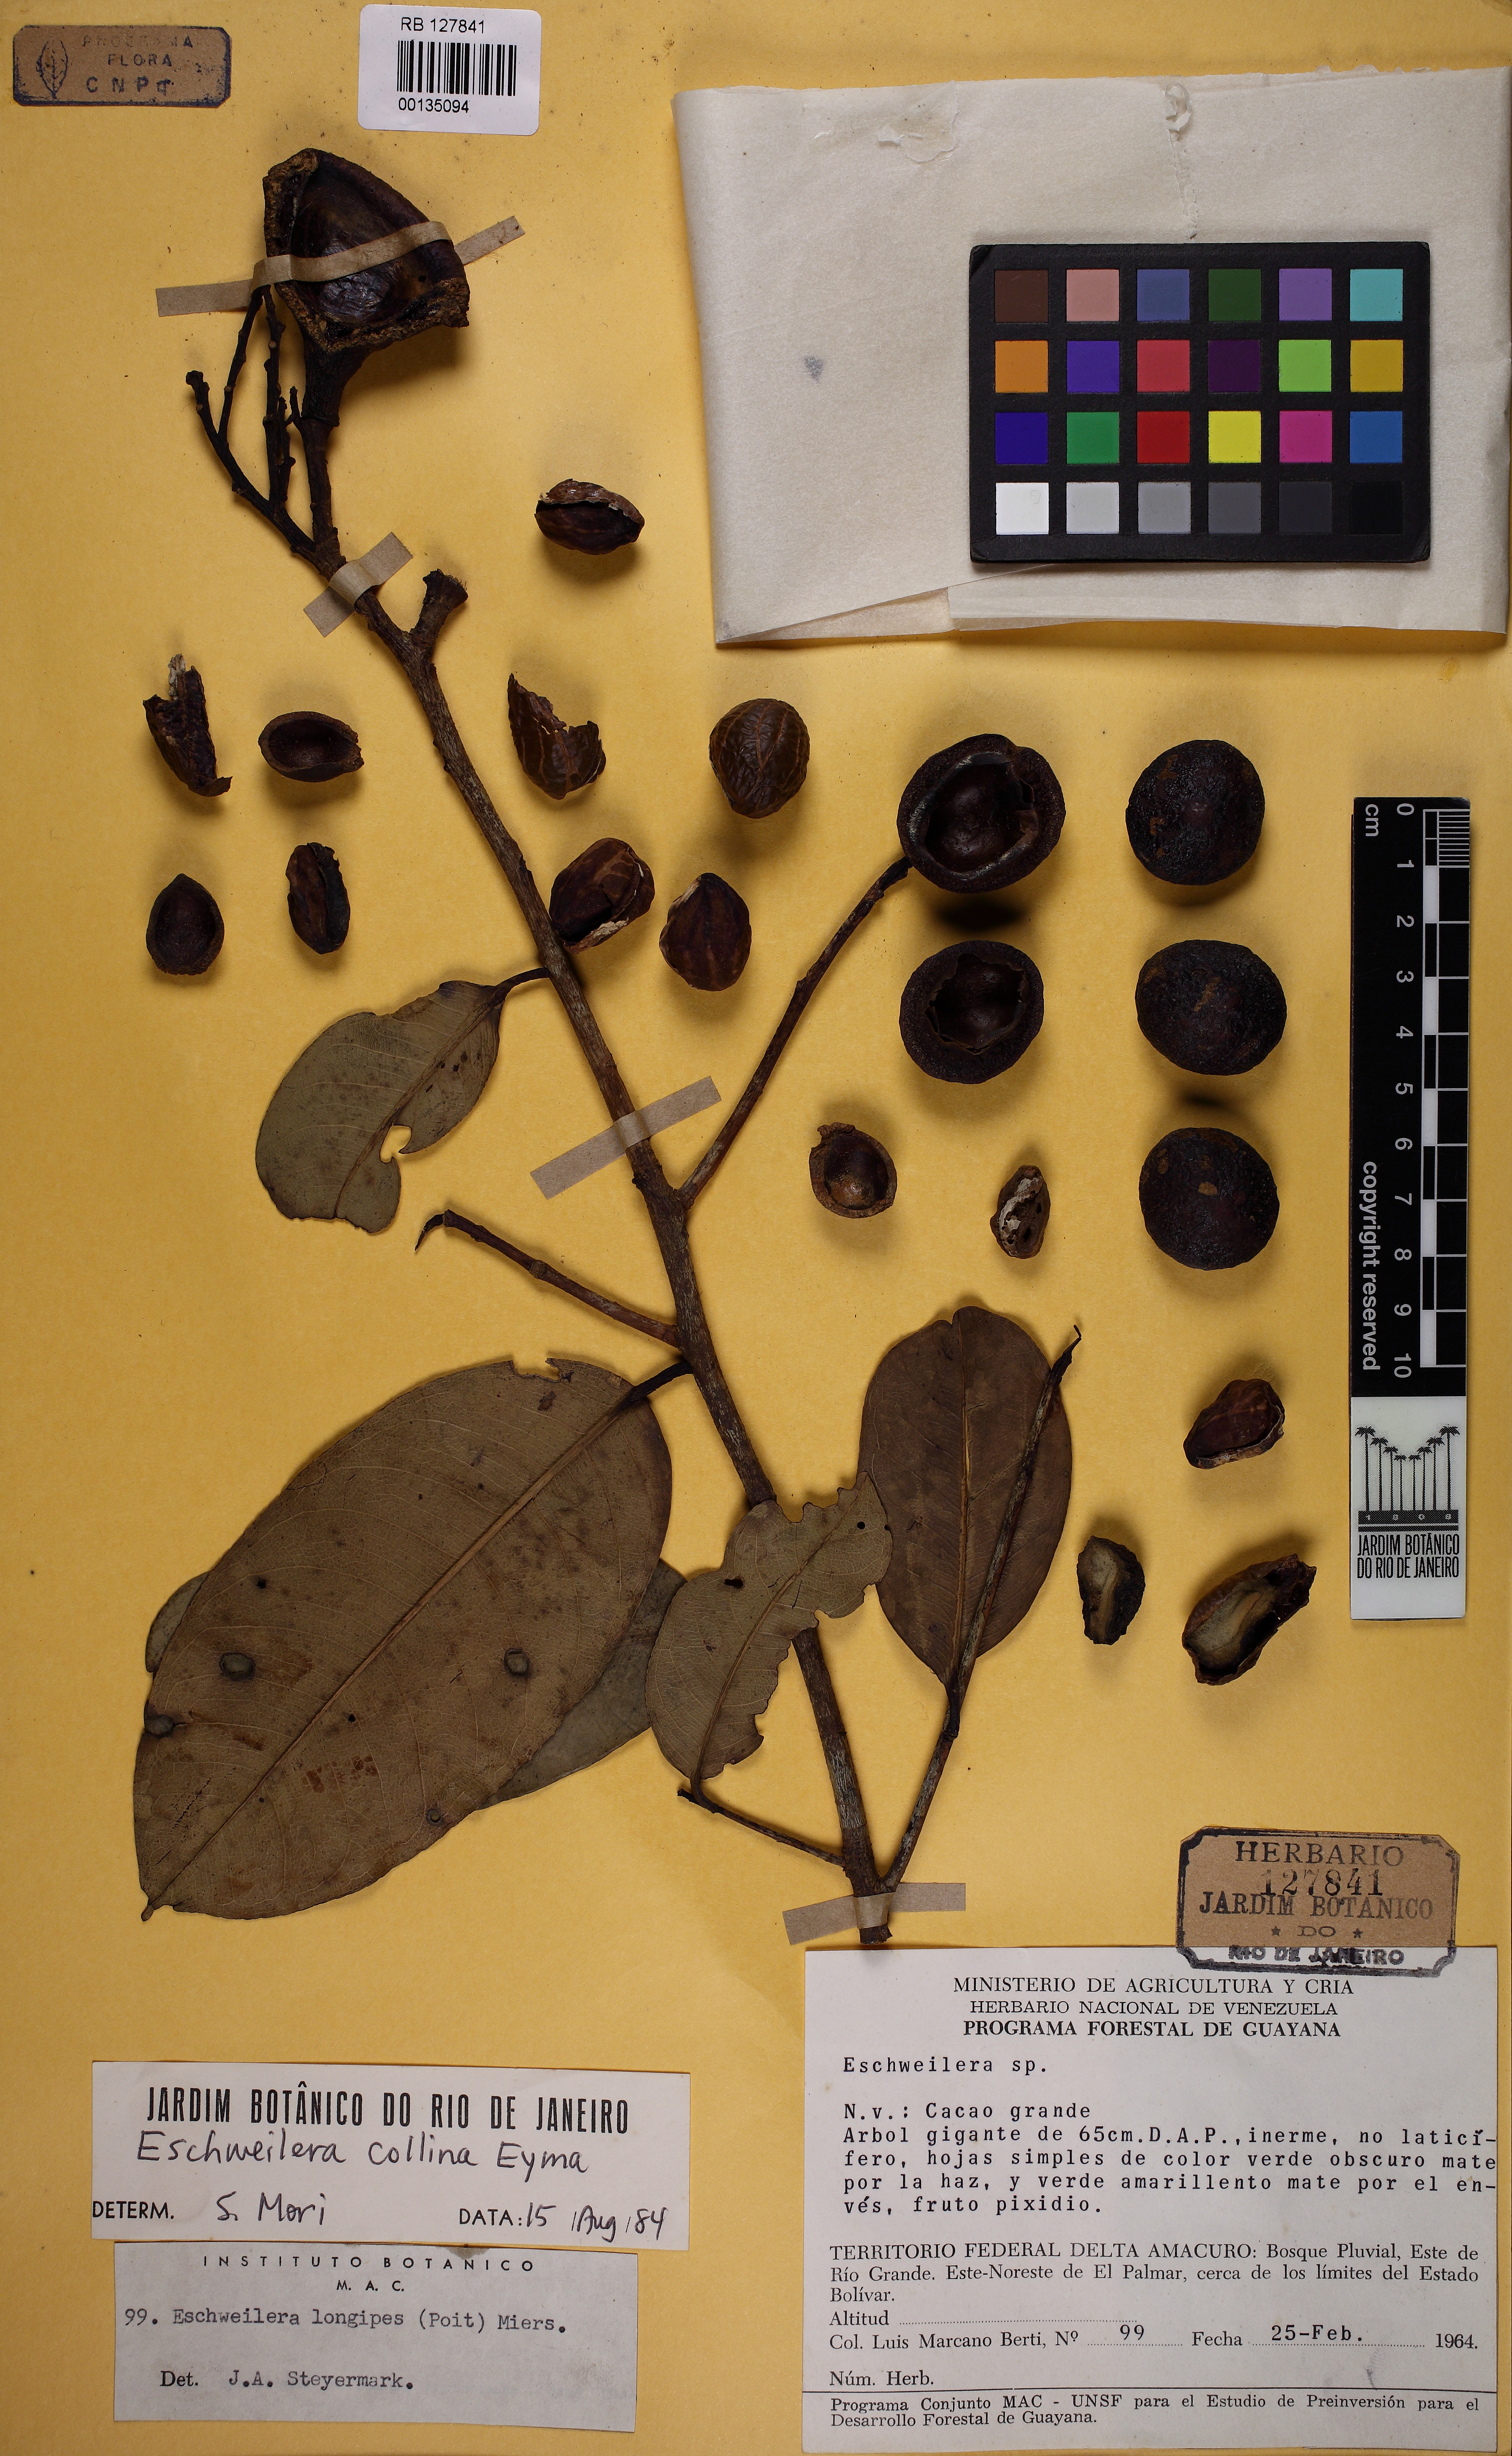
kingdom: Plantae
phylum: Tracheophyta
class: Magnoliopsida
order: Ericales
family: Lecythidaceae
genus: Eschweilera
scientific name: Eschweilera collina
